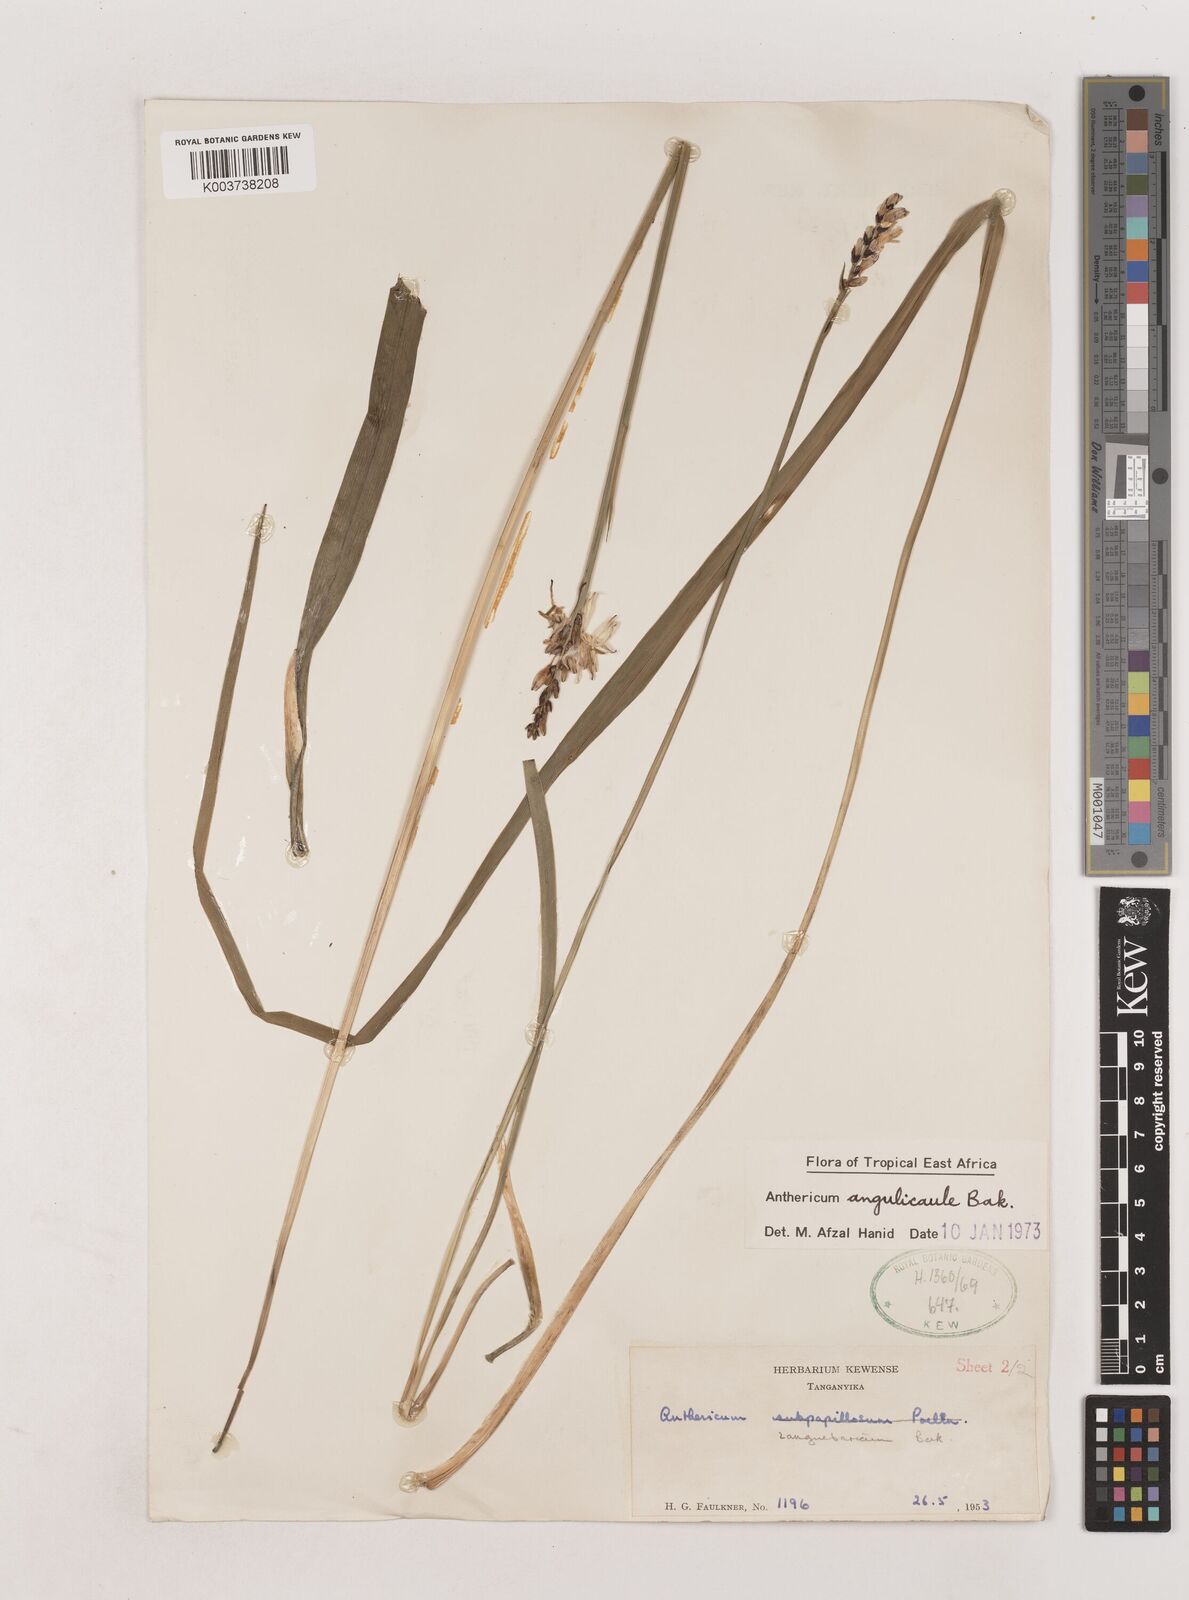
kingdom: Plantae
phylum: Tracheophyta
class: Liliopsida
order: Asparagales
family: Asparagaceae
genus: Chlorophytum
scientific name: Chlorophytum cameronii
